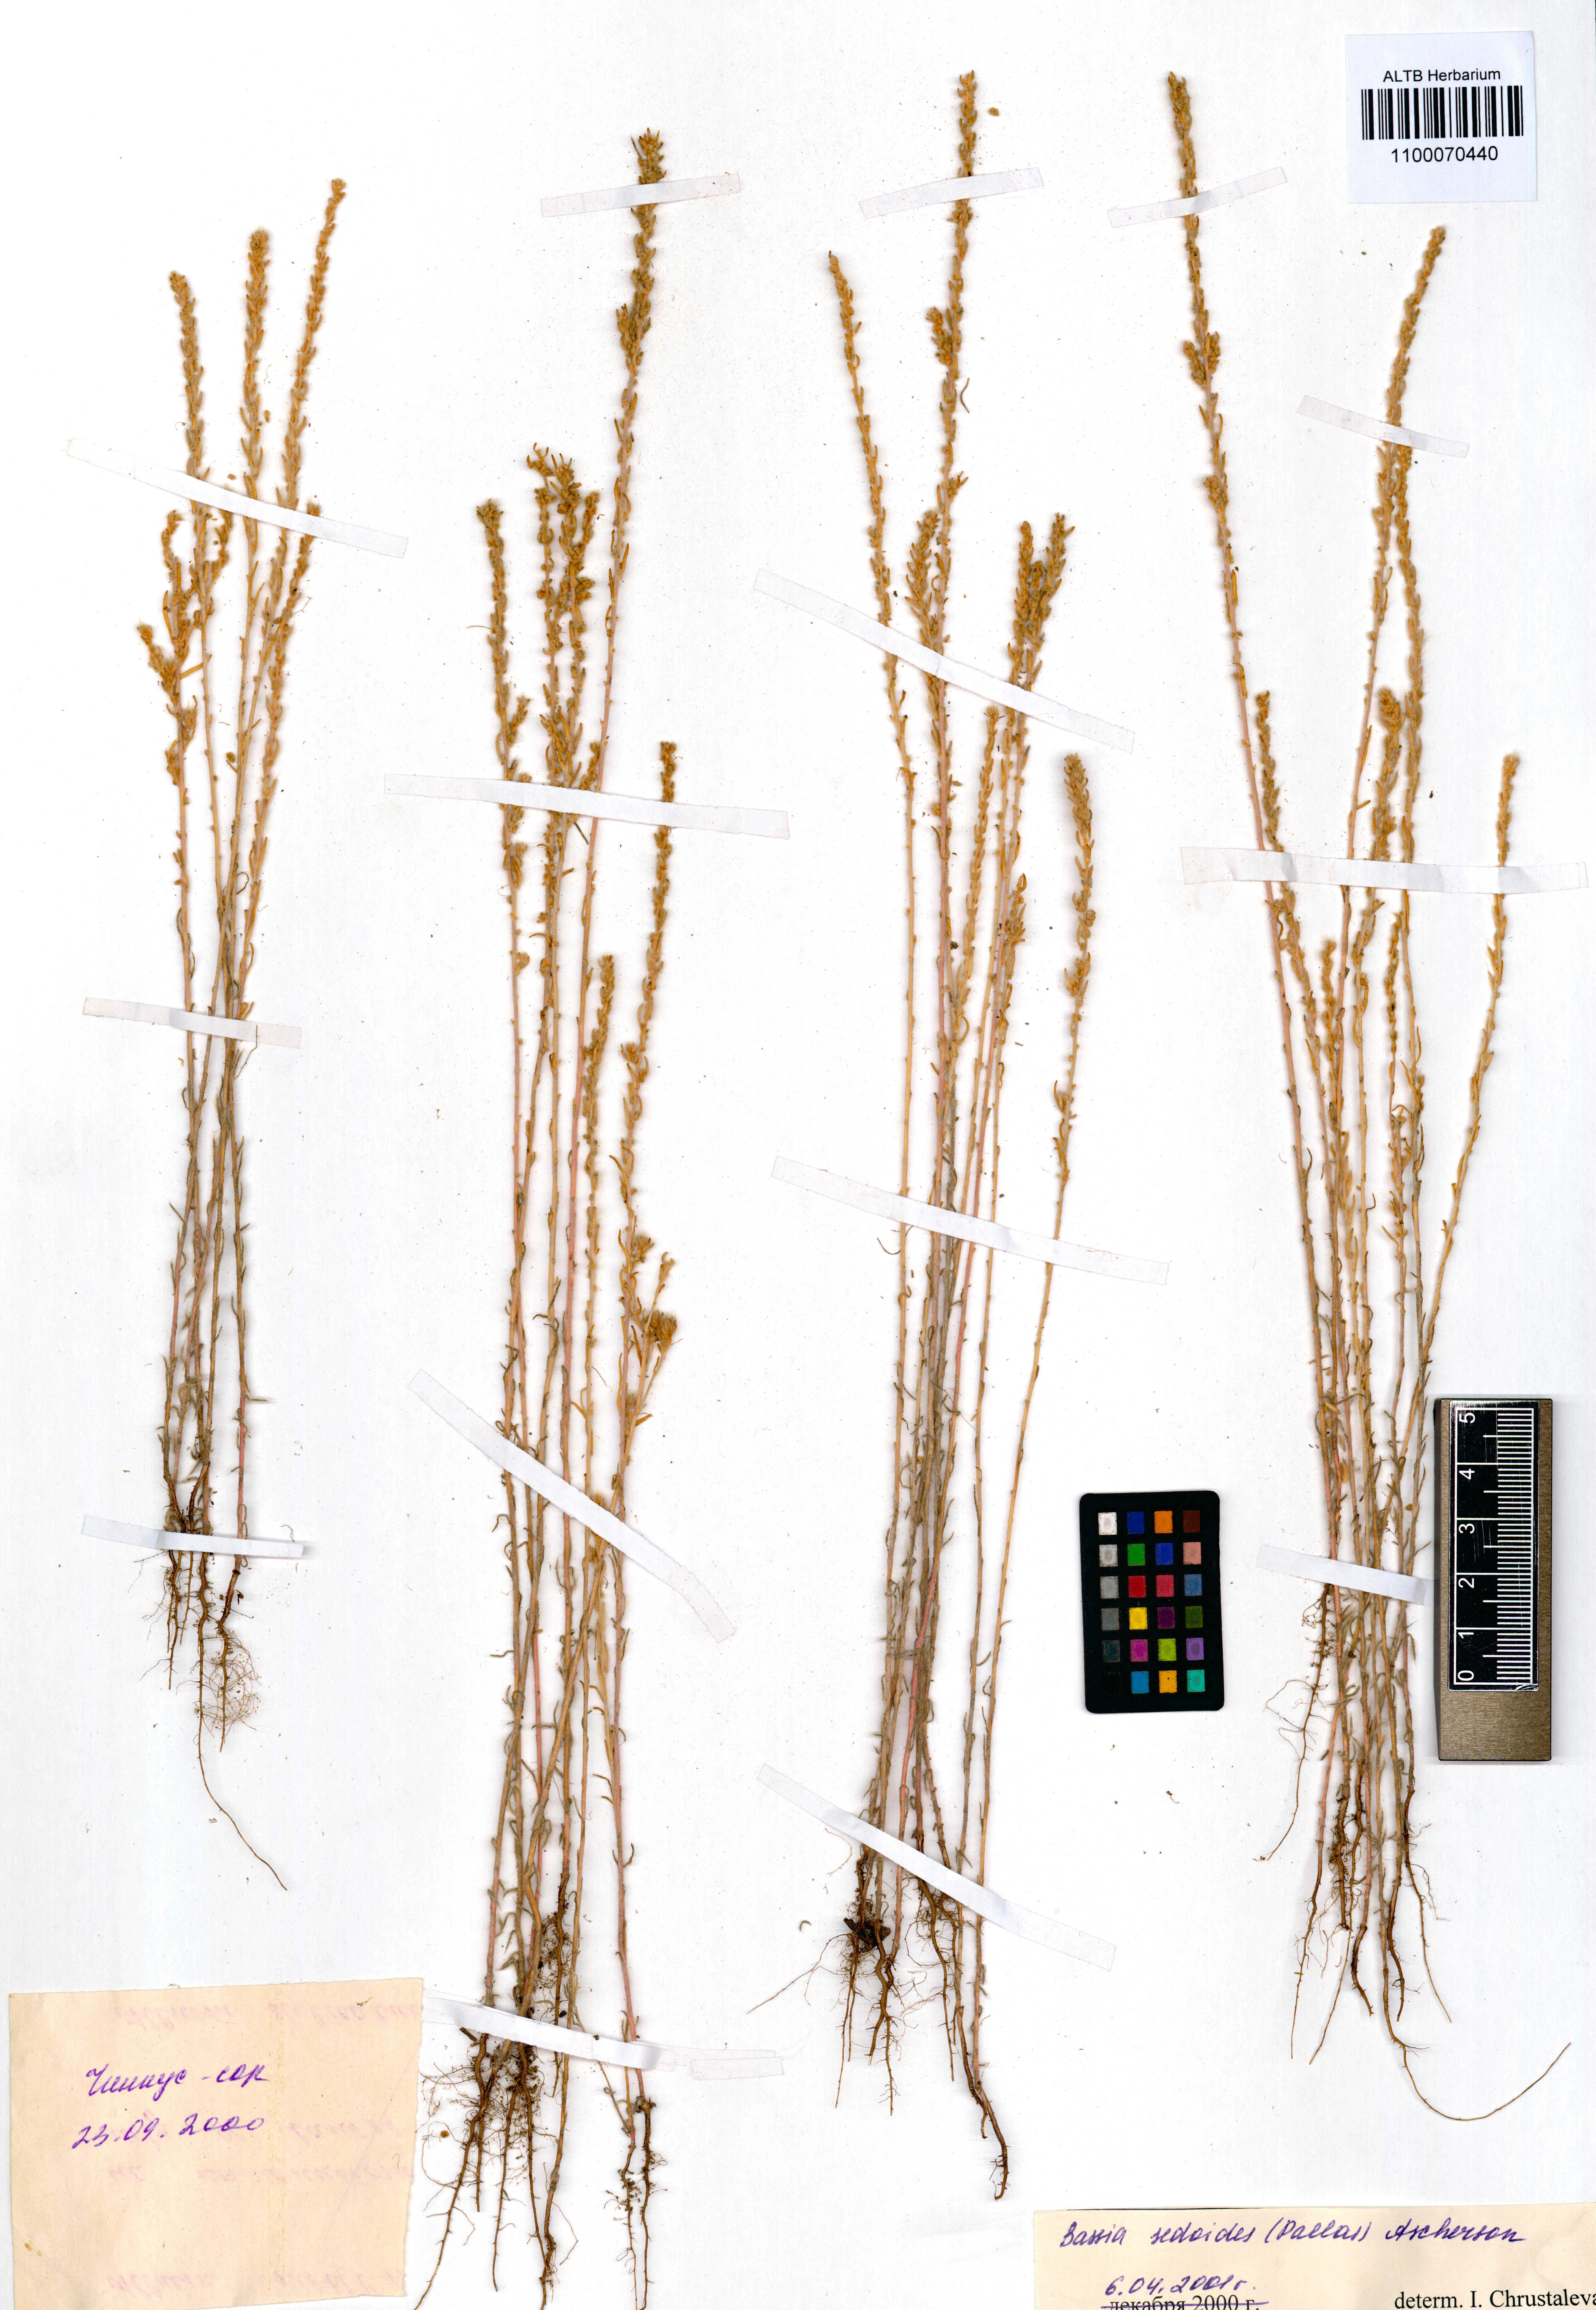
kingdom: Plantae
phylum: Tracheophyta
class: Magnoliopsida
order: Caryophyllales
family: Amaranthaceae
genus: Sedobassia
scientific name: Sedobassia sedoides
